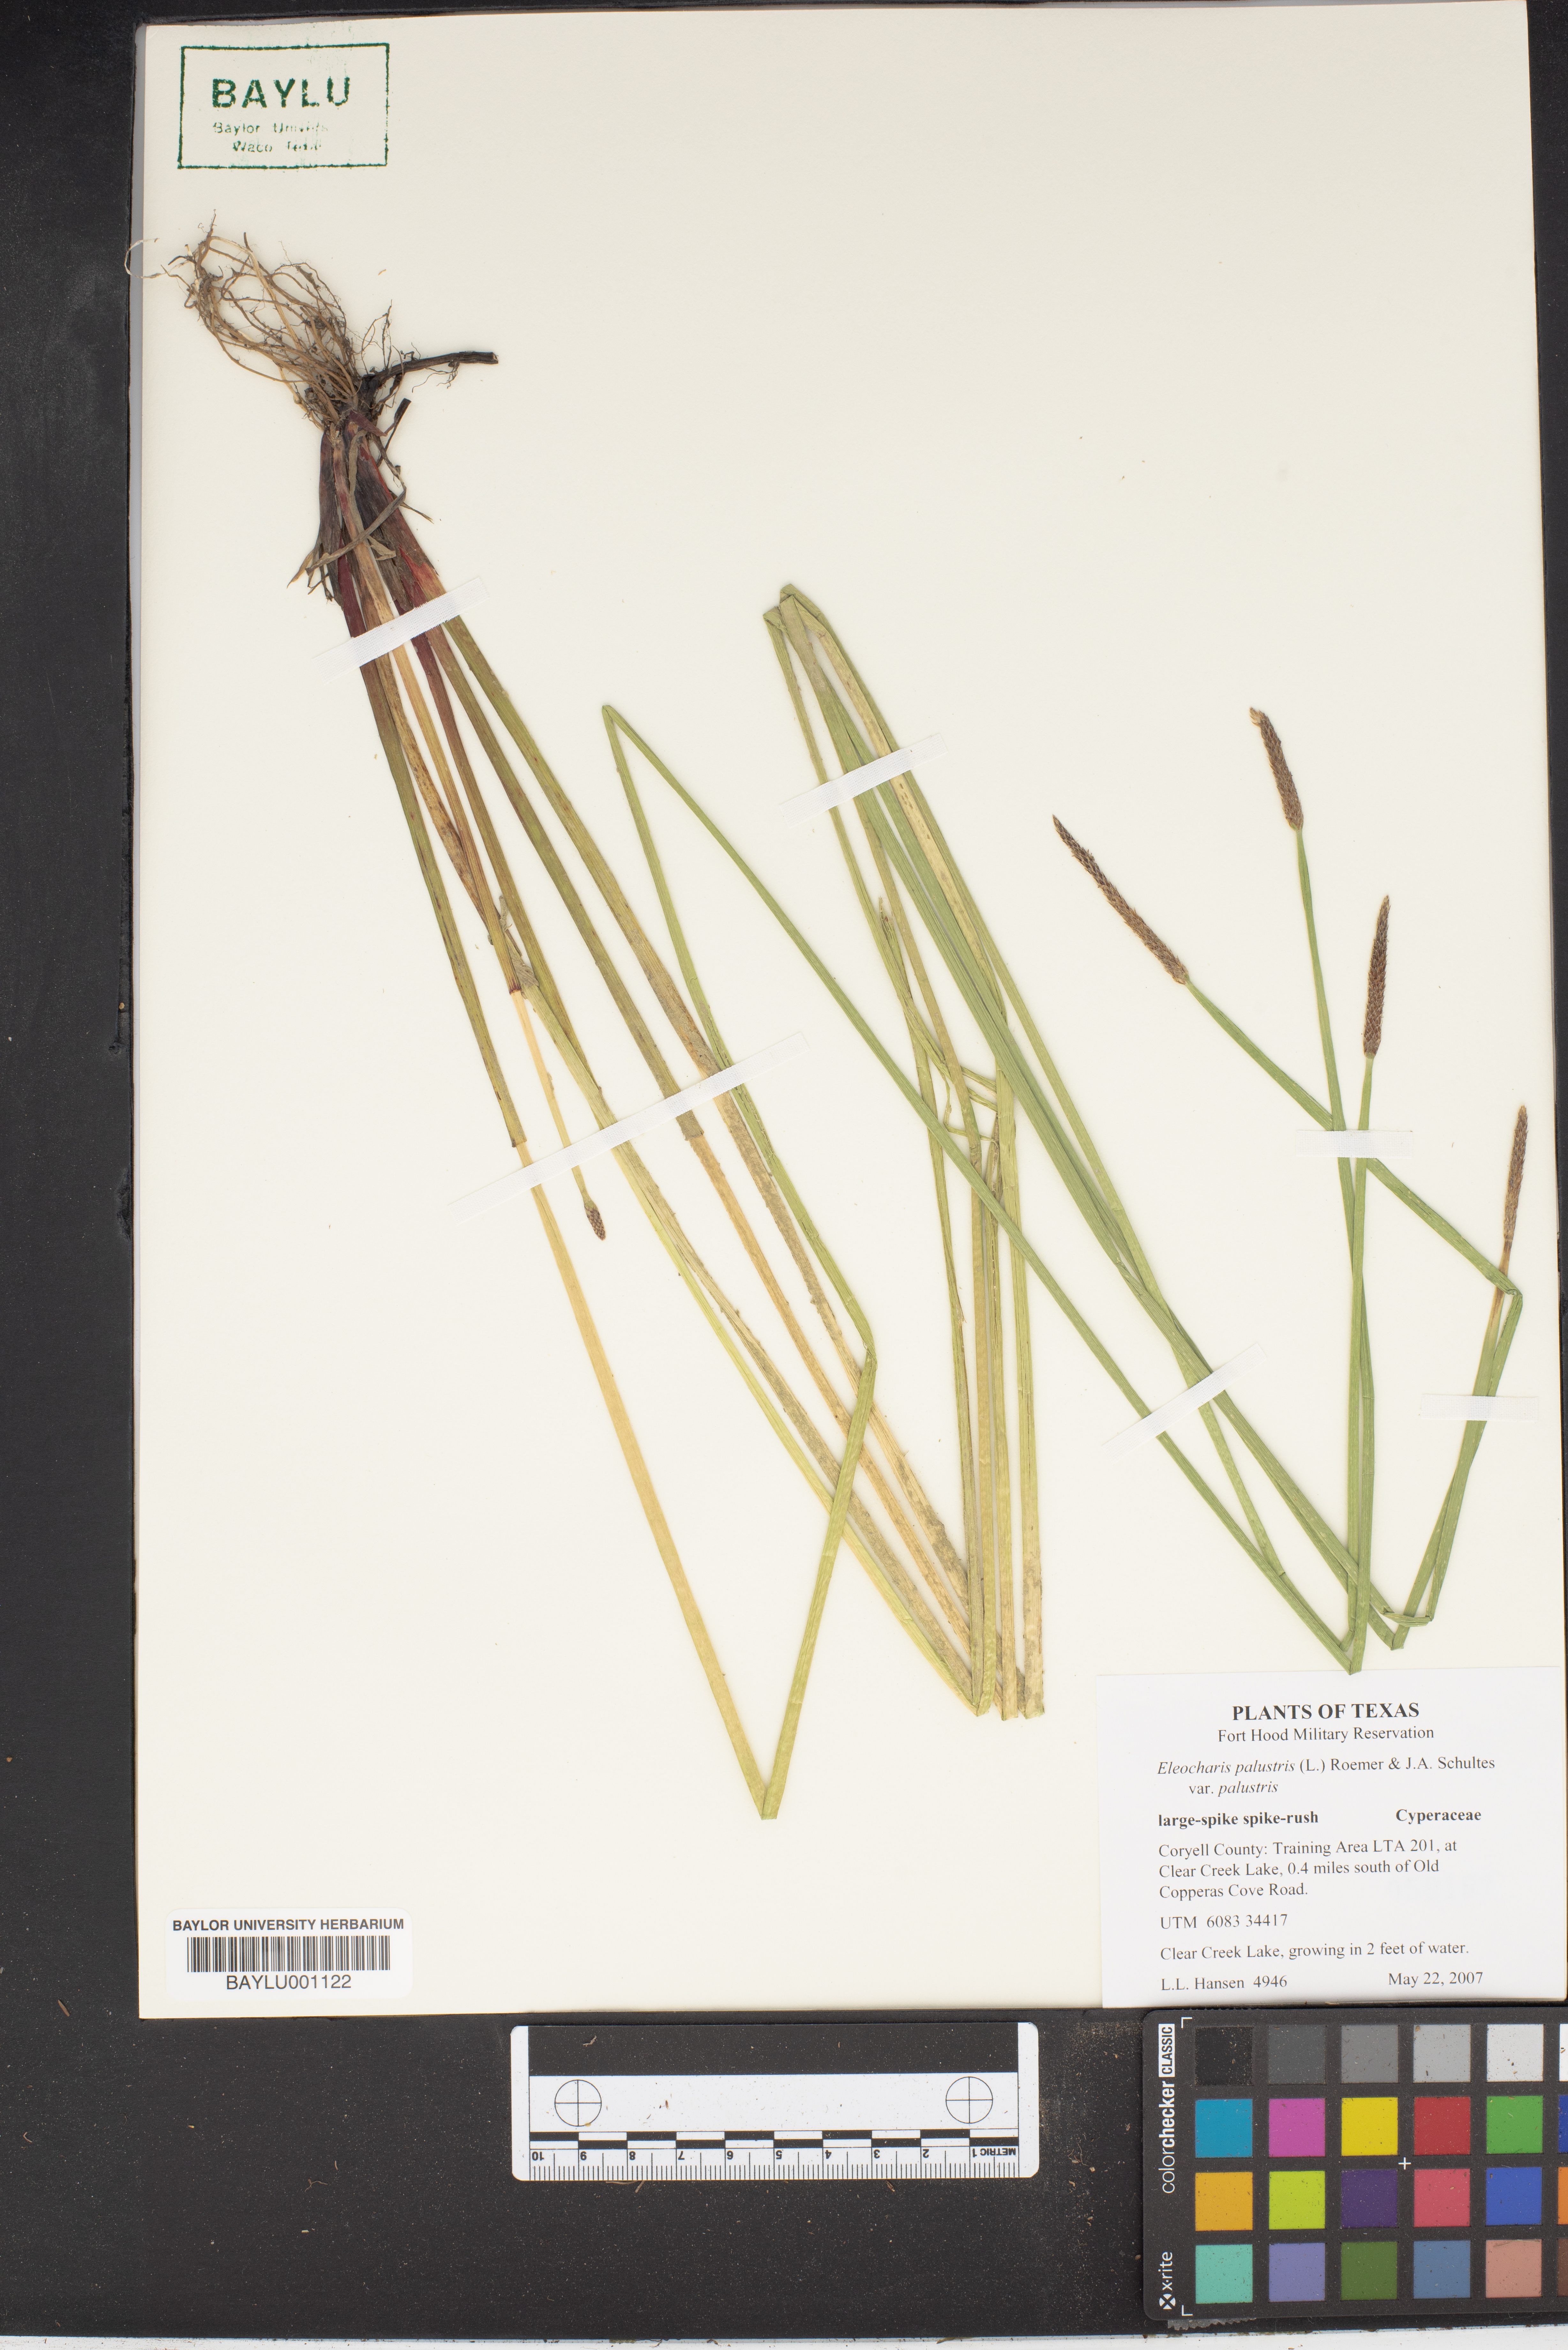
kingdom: Plantae
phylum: Tracheophyta
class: Liliopsida
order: Poales
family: Cyperaceae
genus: Eleocharis
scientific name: Eleocharis palustris
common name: Common spike-rush
